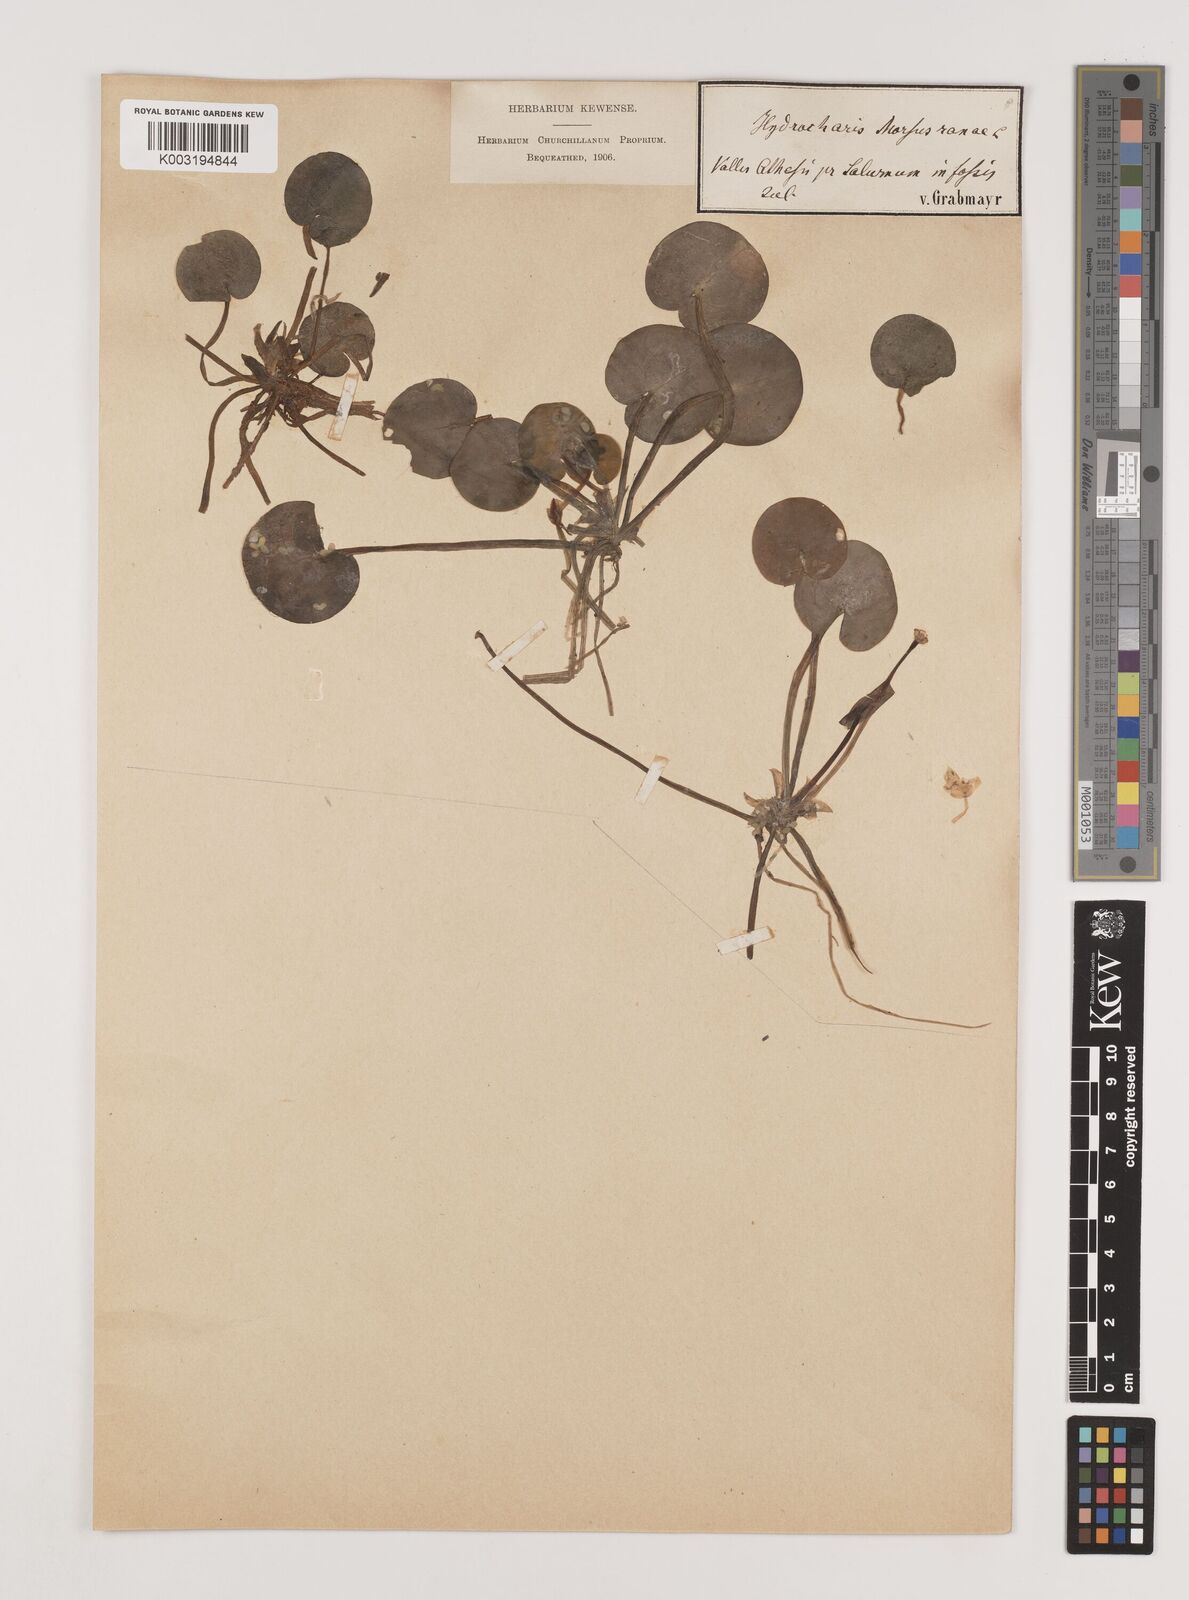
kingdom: Plantae
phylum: Tracheophyta
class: Liliopsida
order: Alismatales
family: Hydrocharitaceae
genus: Hydrocharis
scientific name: Hydrocharis morsus-ranae
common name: Frogbit
